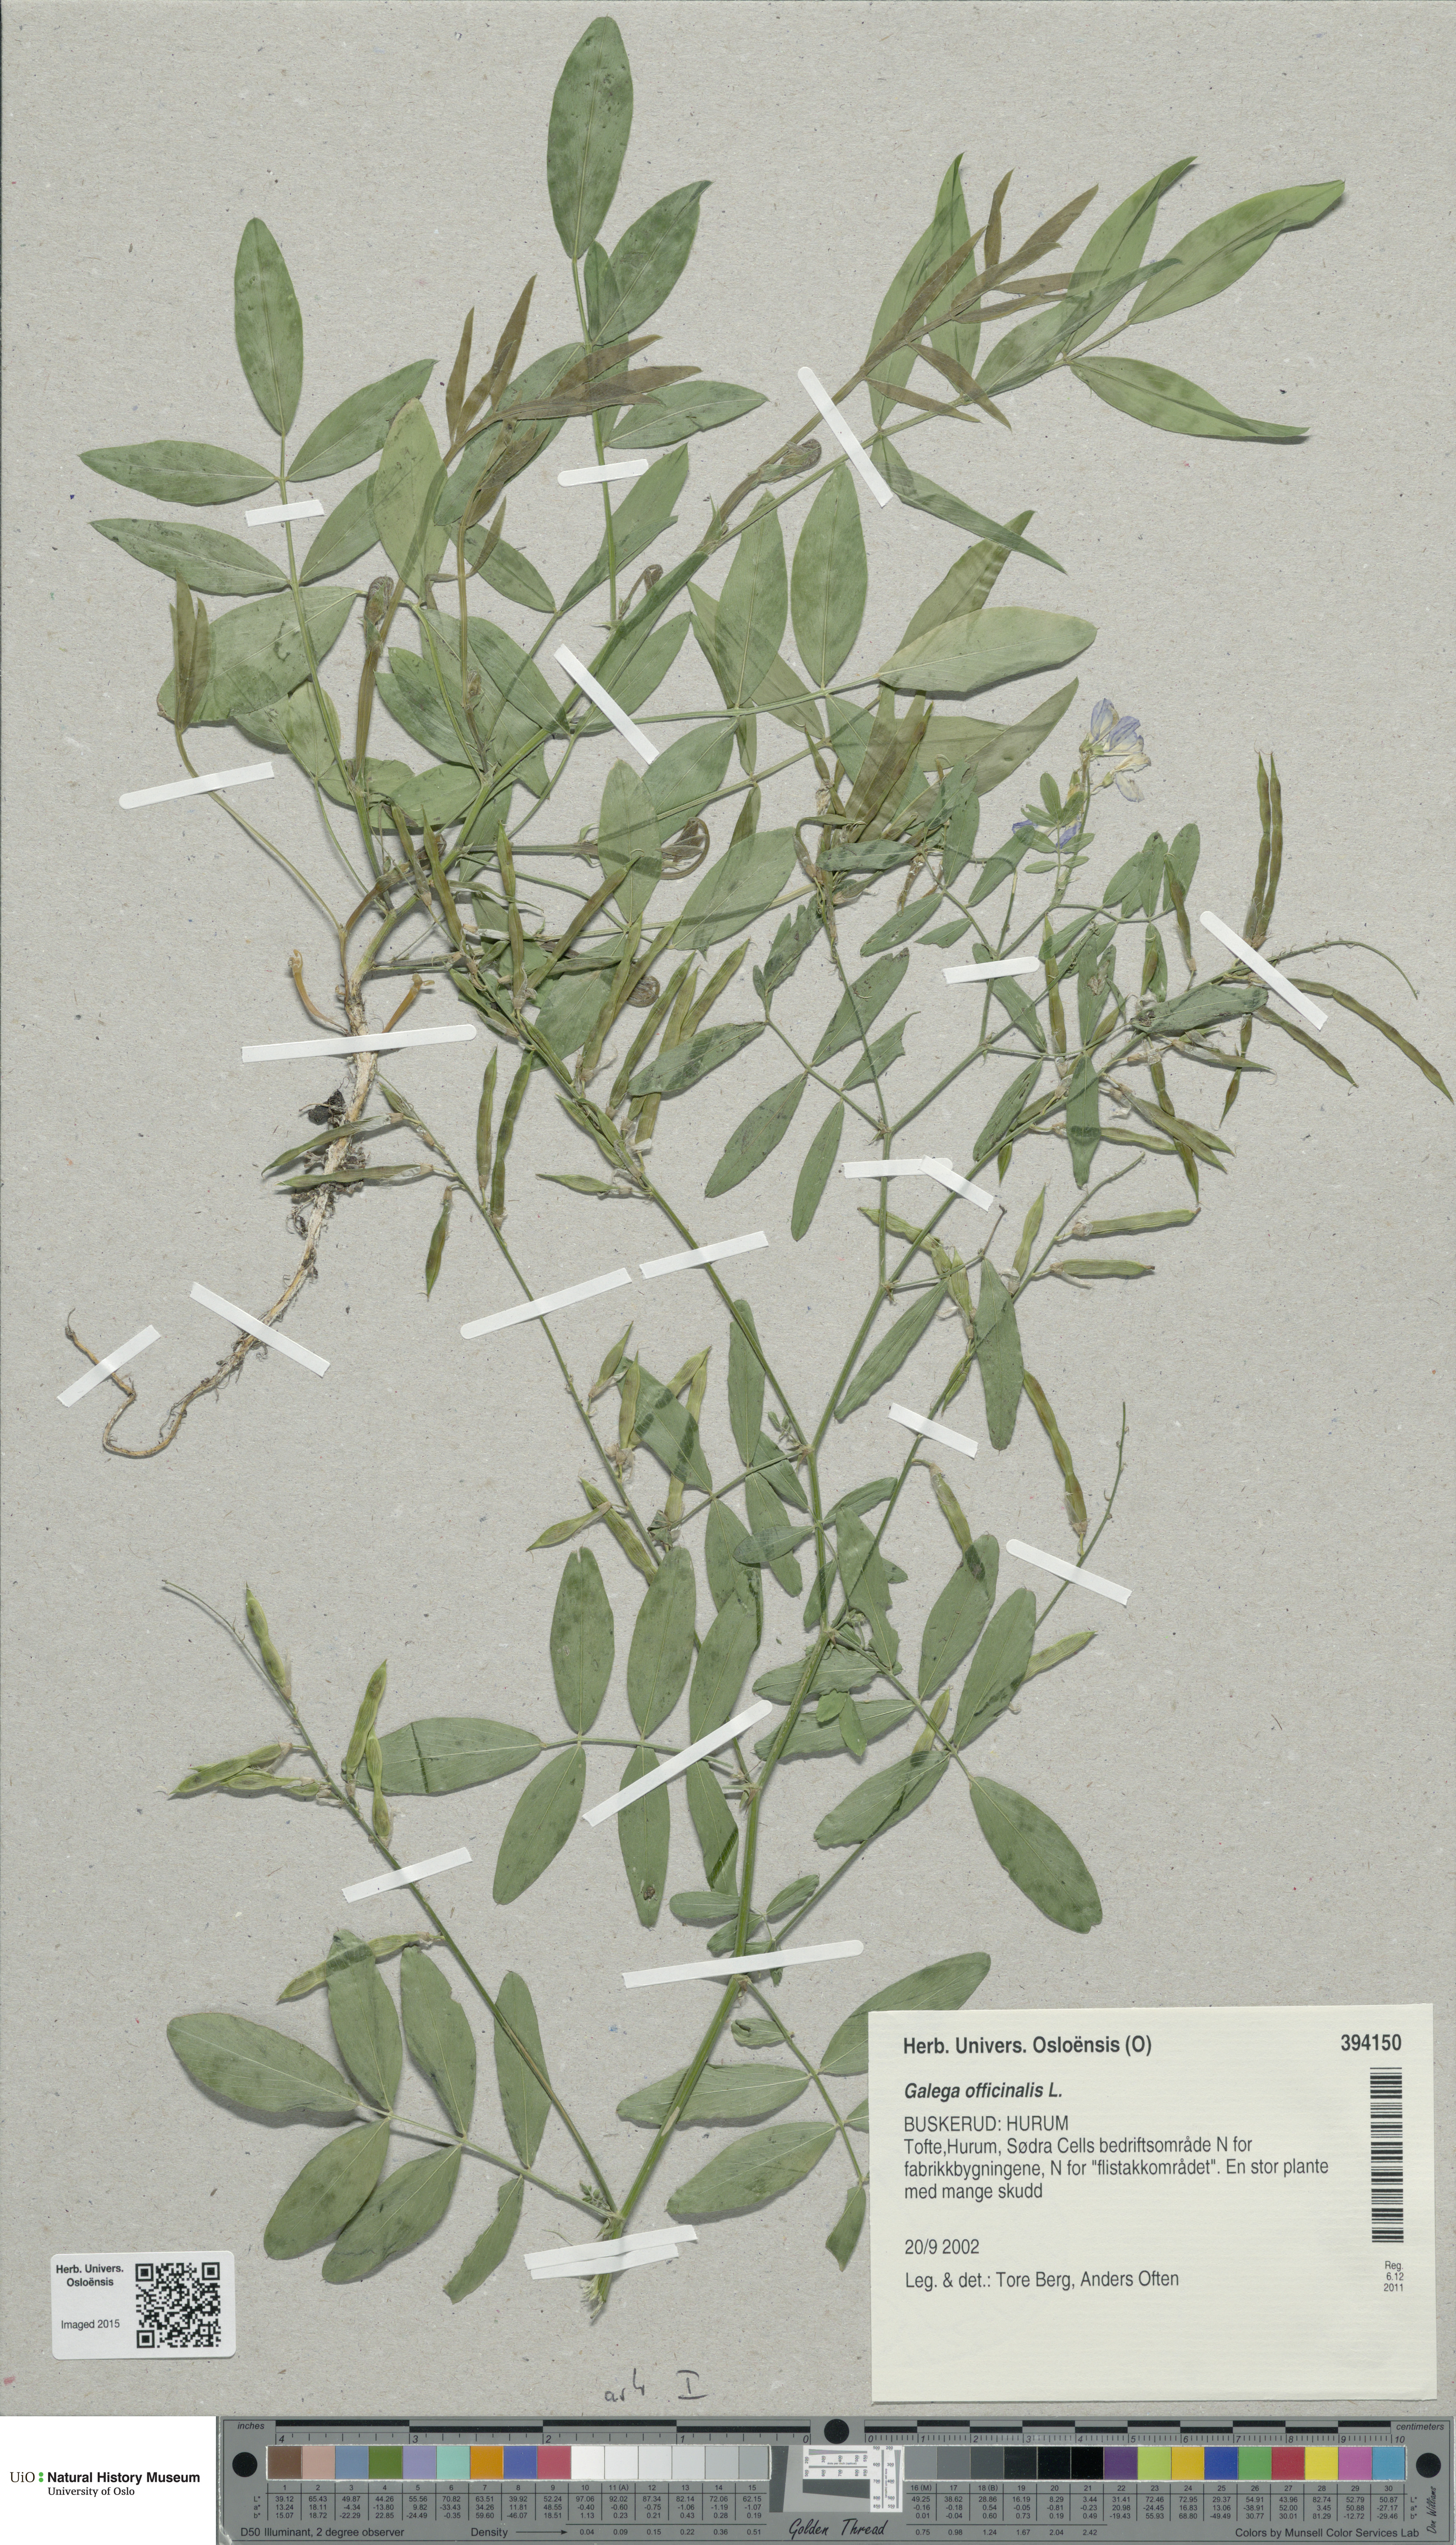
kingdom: Plantae
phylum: Tracheophyta
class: Magnoliopsida
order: Fabales
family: Fabaceae
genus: Galega
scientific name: Galega officinalis
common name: Goat's-rue
